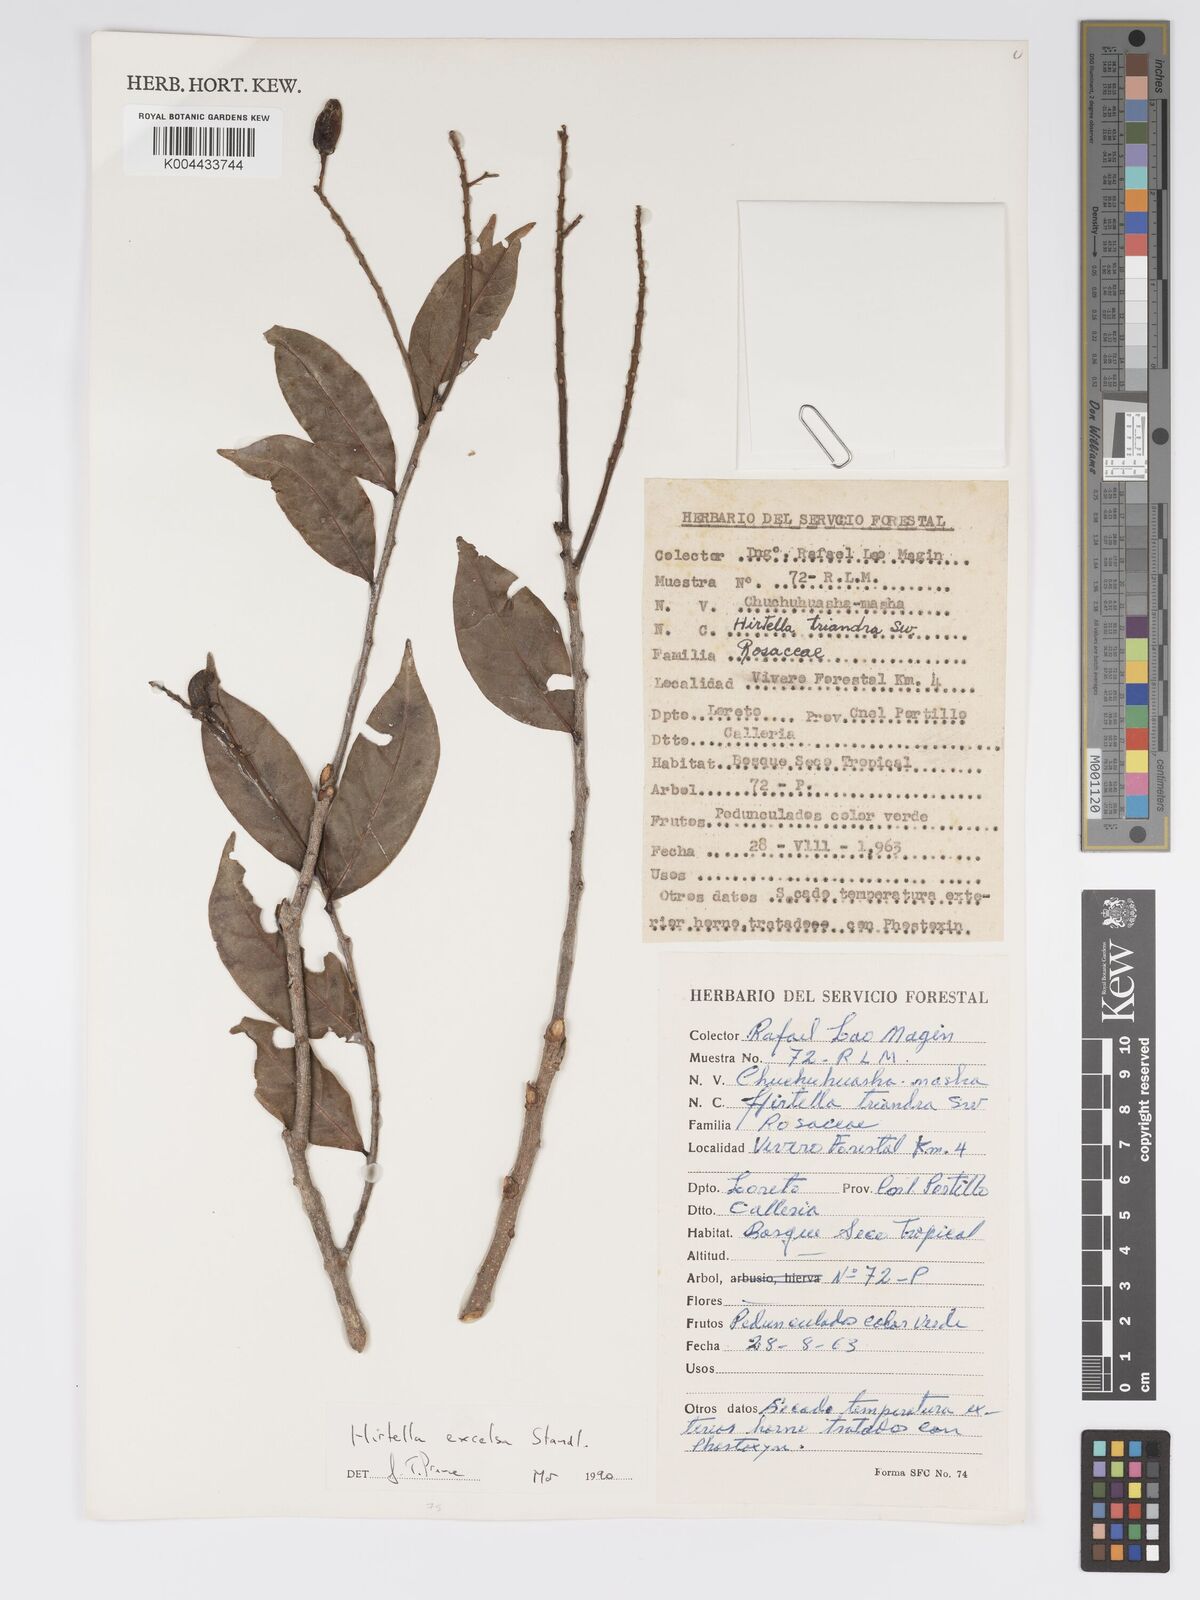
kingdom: Plantae
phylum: Tracheophyta
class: Magnoliopsida
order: Malpighiales
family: Chrysobalanaceae
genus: Hirtella
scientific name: Hirtella excelsa
